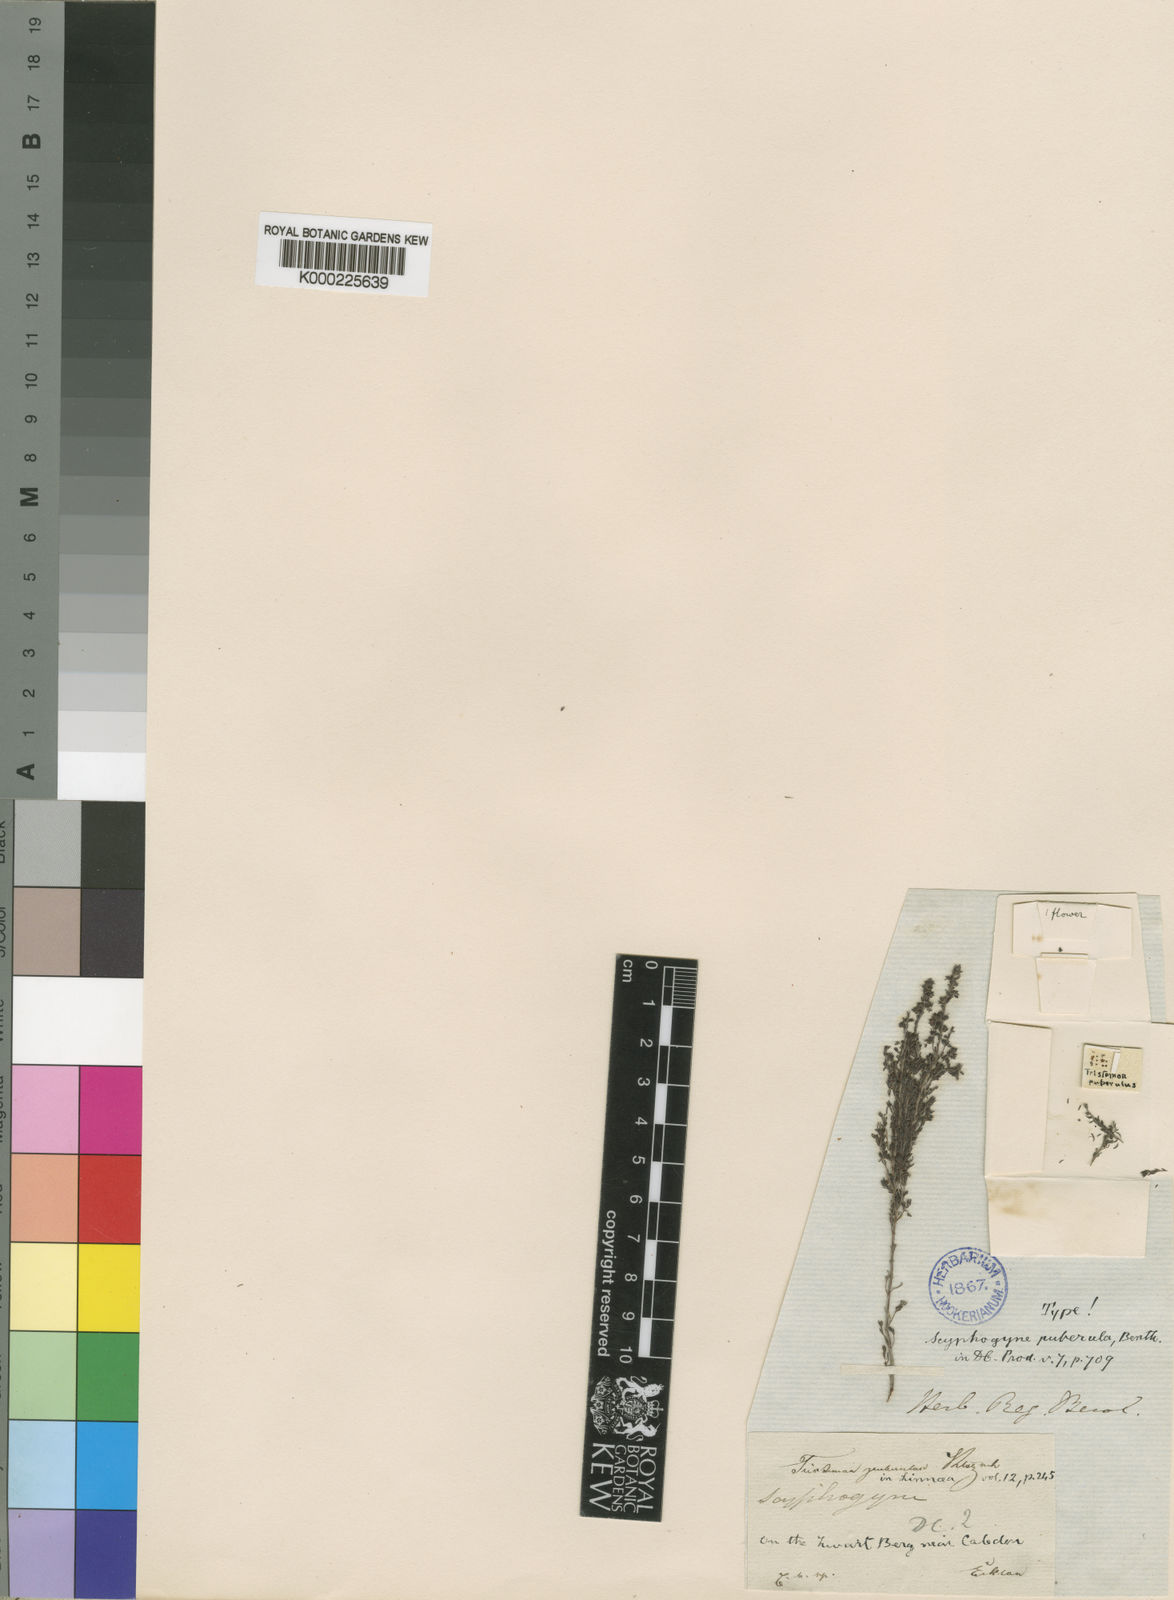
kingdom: Plantae
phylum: Tracheophyta
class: Magnoliopsida
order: Ericales
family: Ericaceae
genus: Erica
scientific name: Erica
